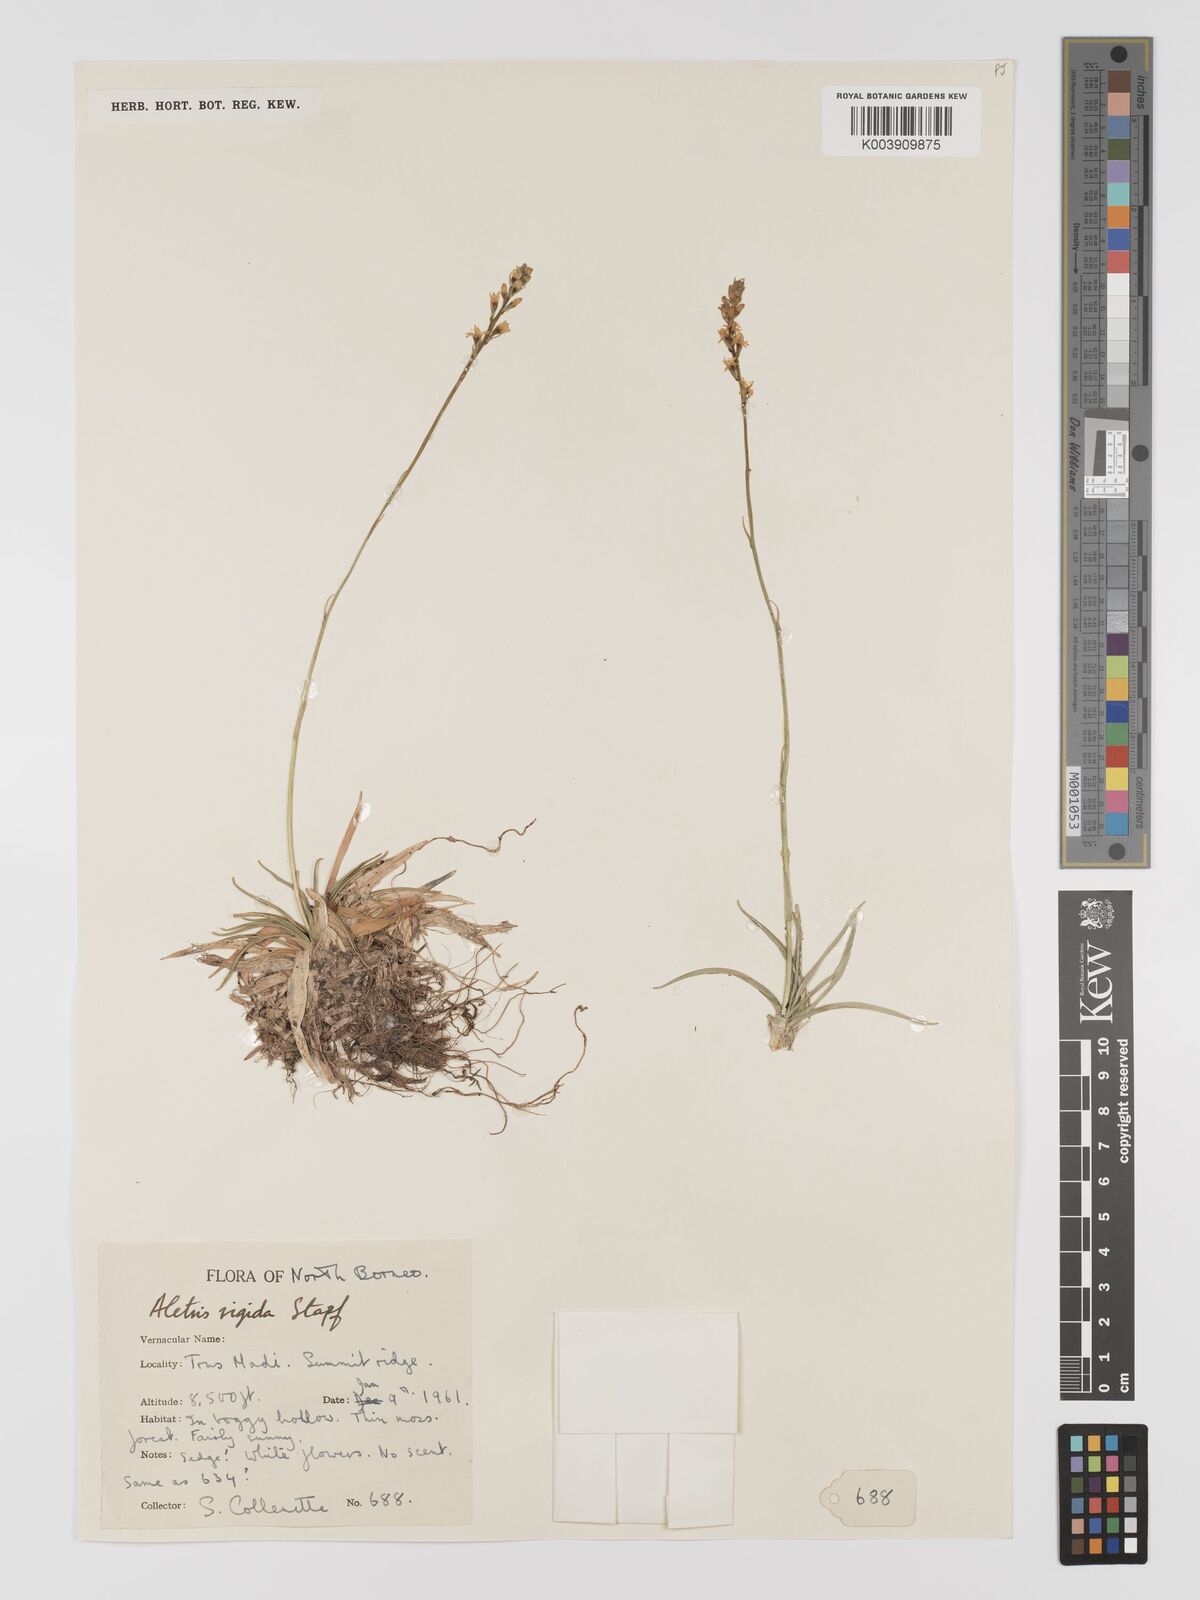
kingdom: Plantae
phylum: Tracheophyta
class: Liliopsida
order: Dioscoreales
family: Nartheciaceae
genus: Aletris
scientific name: Aletris foliolosa
